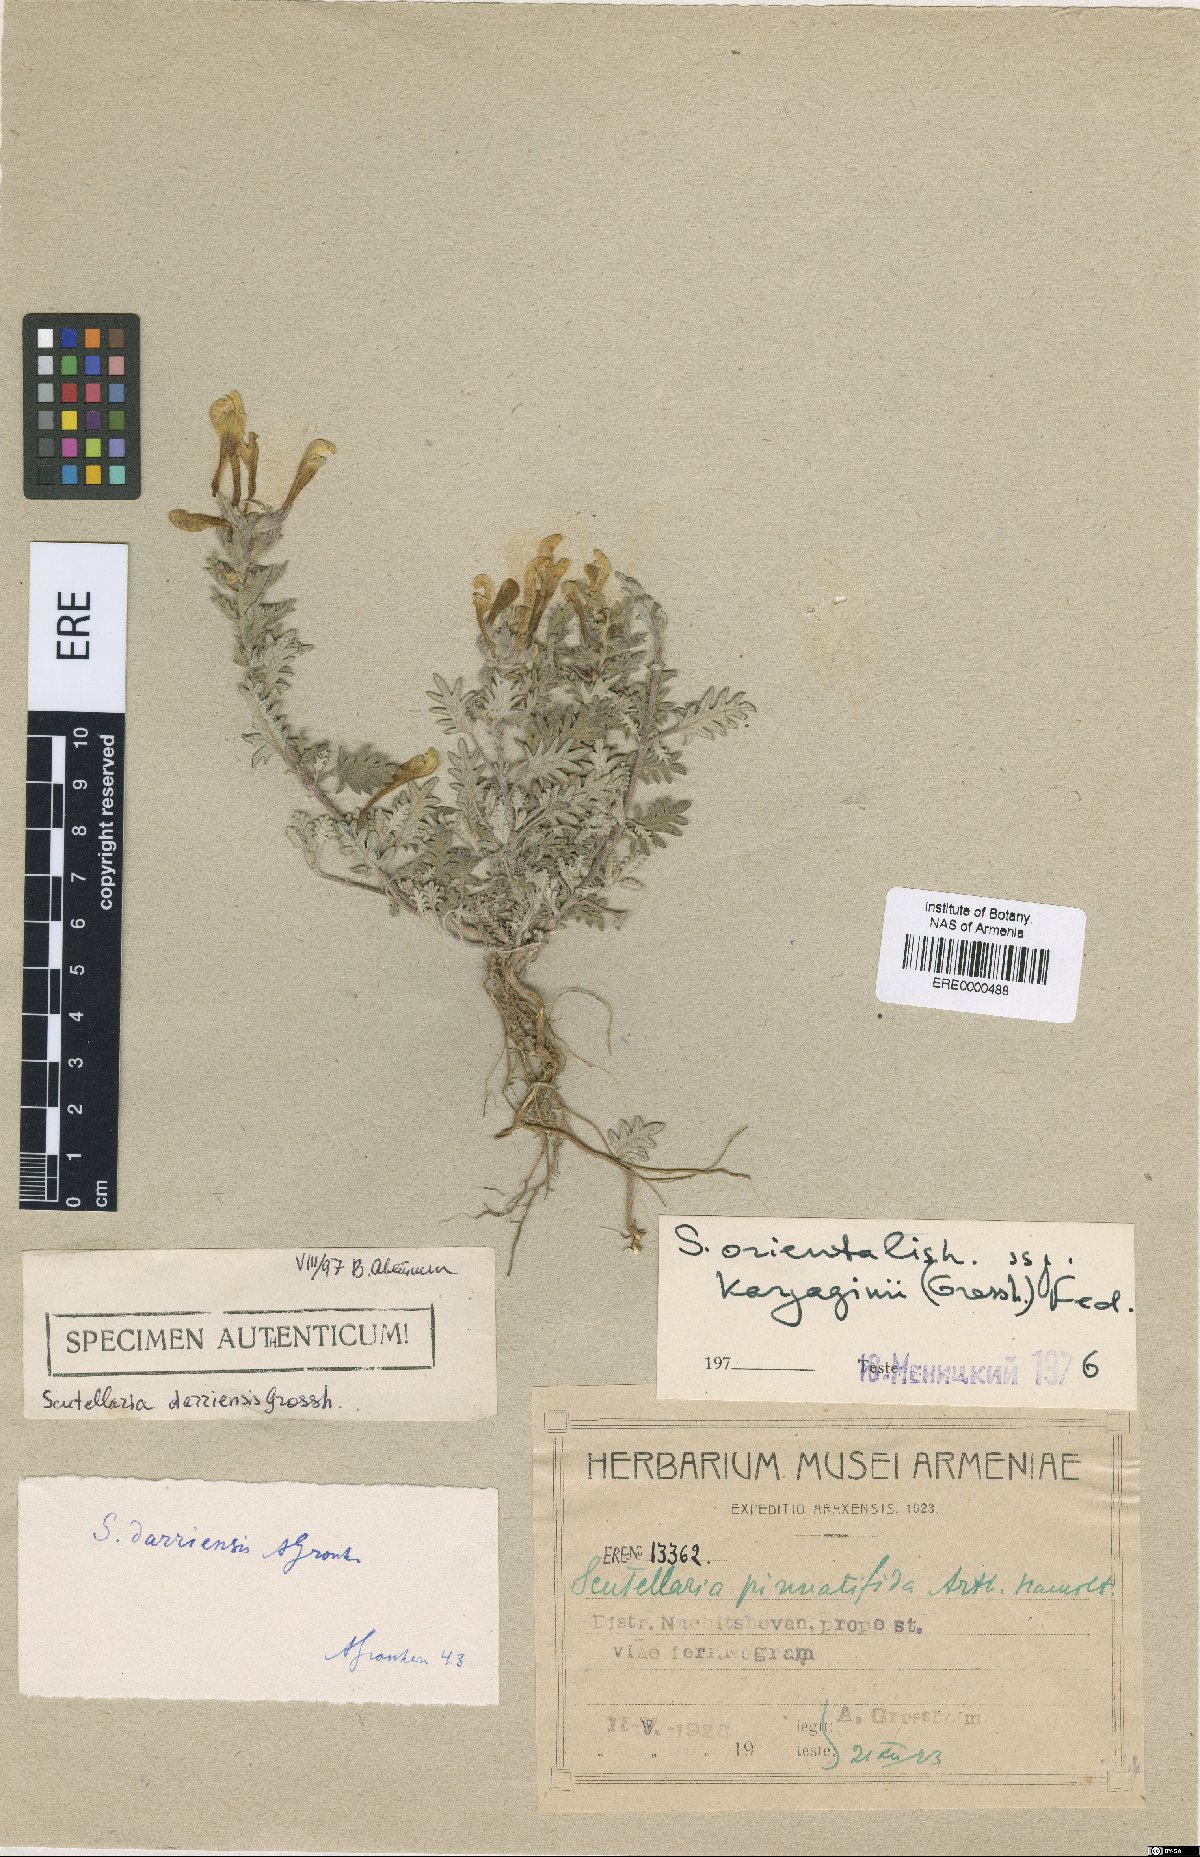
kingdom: Plantae
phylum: Tracheophyta
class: Magnoliopsida
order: Lamiales
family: Lamiaceae
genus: Scutellaria
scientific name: Scutellaria darriensis
